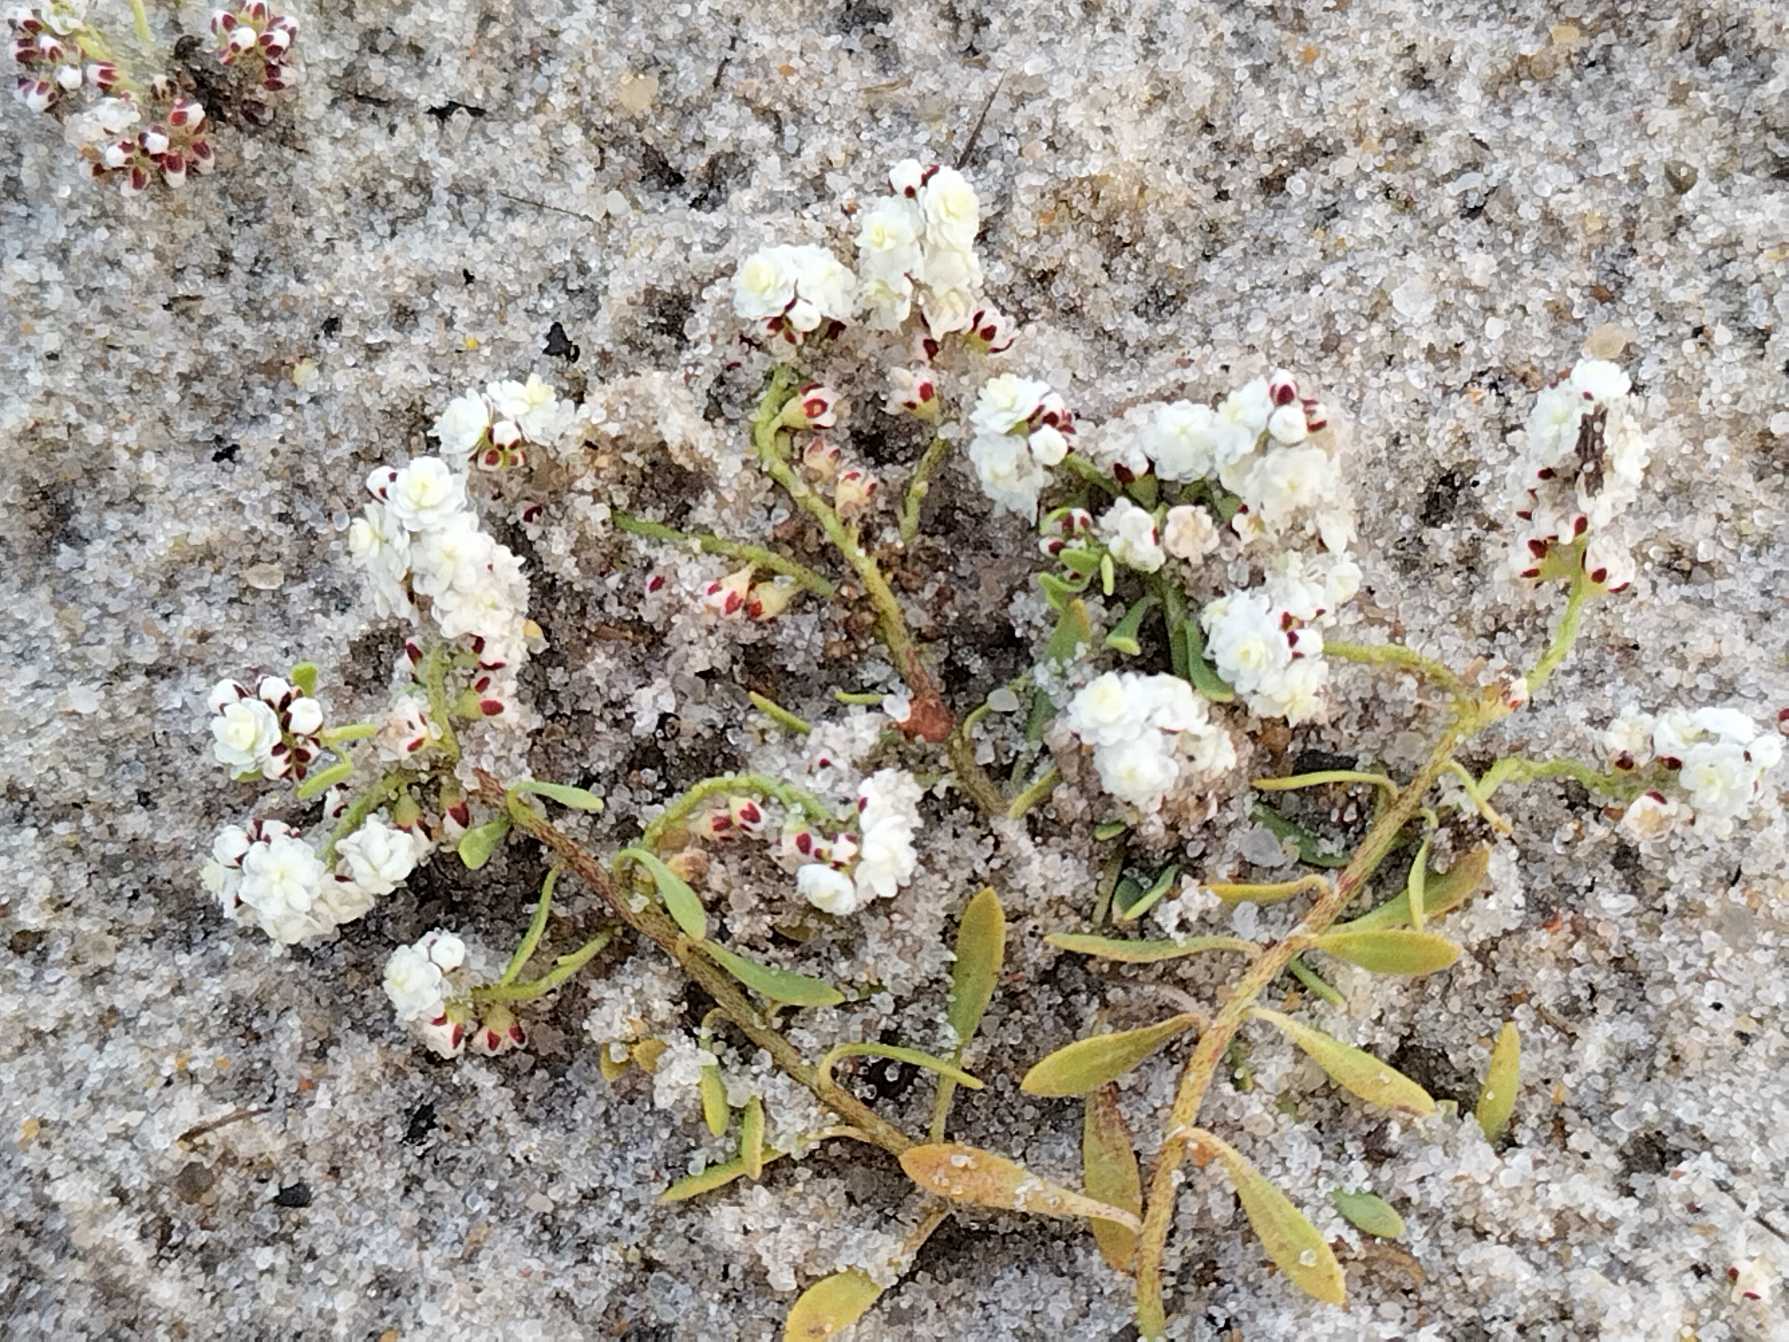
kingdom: Plantae
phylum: Tracheophyta
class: Magnoliopsida
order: Caryophyllales
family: Caryophyllaceae
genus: Corrigiola
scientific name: Corrigiola litoralis
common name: Skorem
